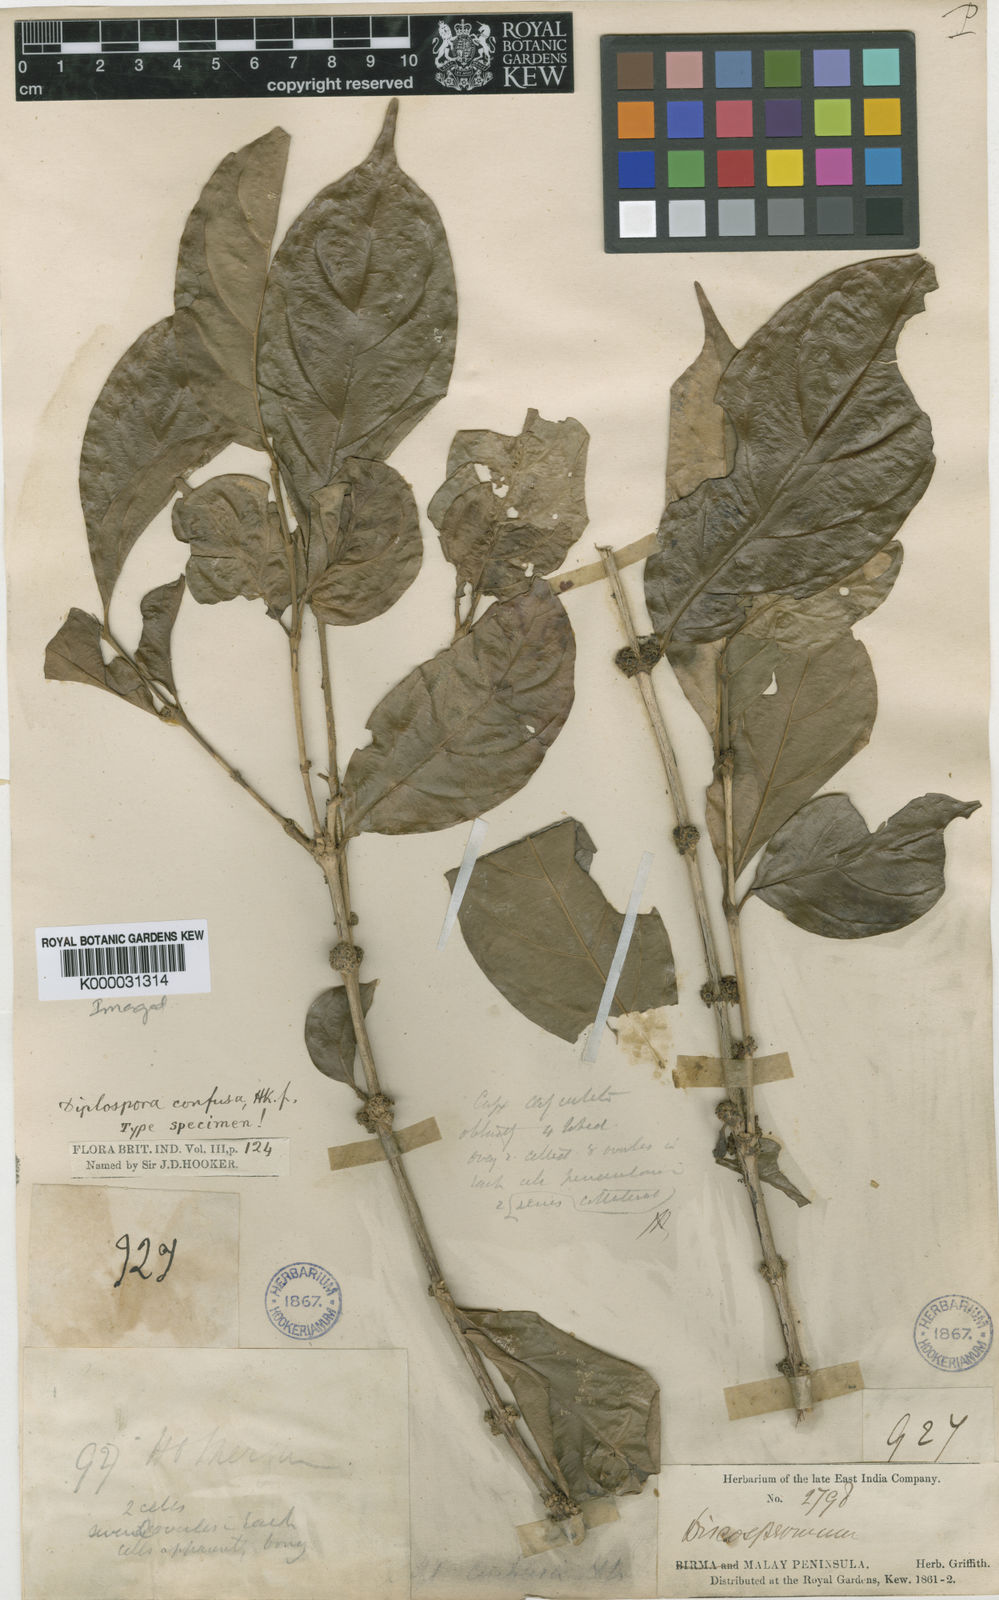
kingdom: Plantae
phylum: Tracheophyta
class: Magnoliopsida
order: Gentianales
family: Rubiaceae
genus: Discospermum
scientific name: Discospermum abnorme
